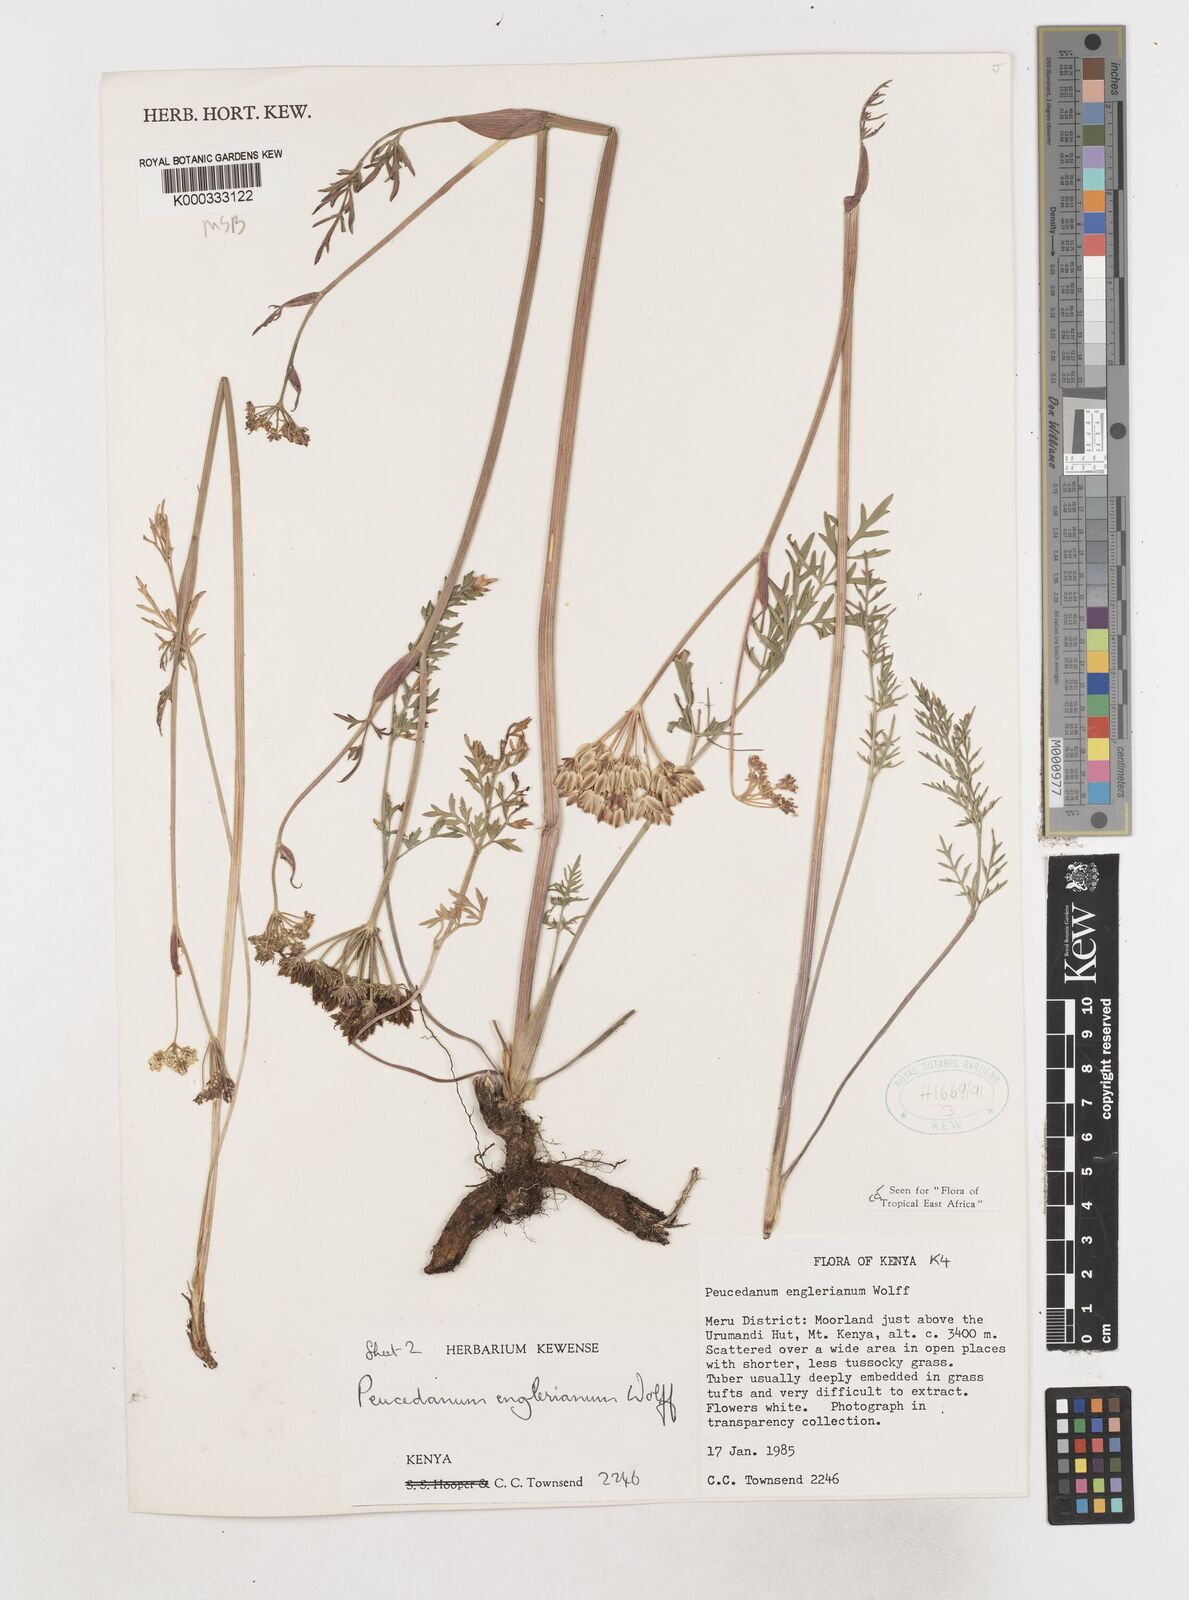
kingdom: Plantae
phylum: Tracheophyta
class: Magnoliopsida
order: Apiales
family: Apiaceae
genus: Afrosciadium
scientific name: Afrosciadium englerianum
